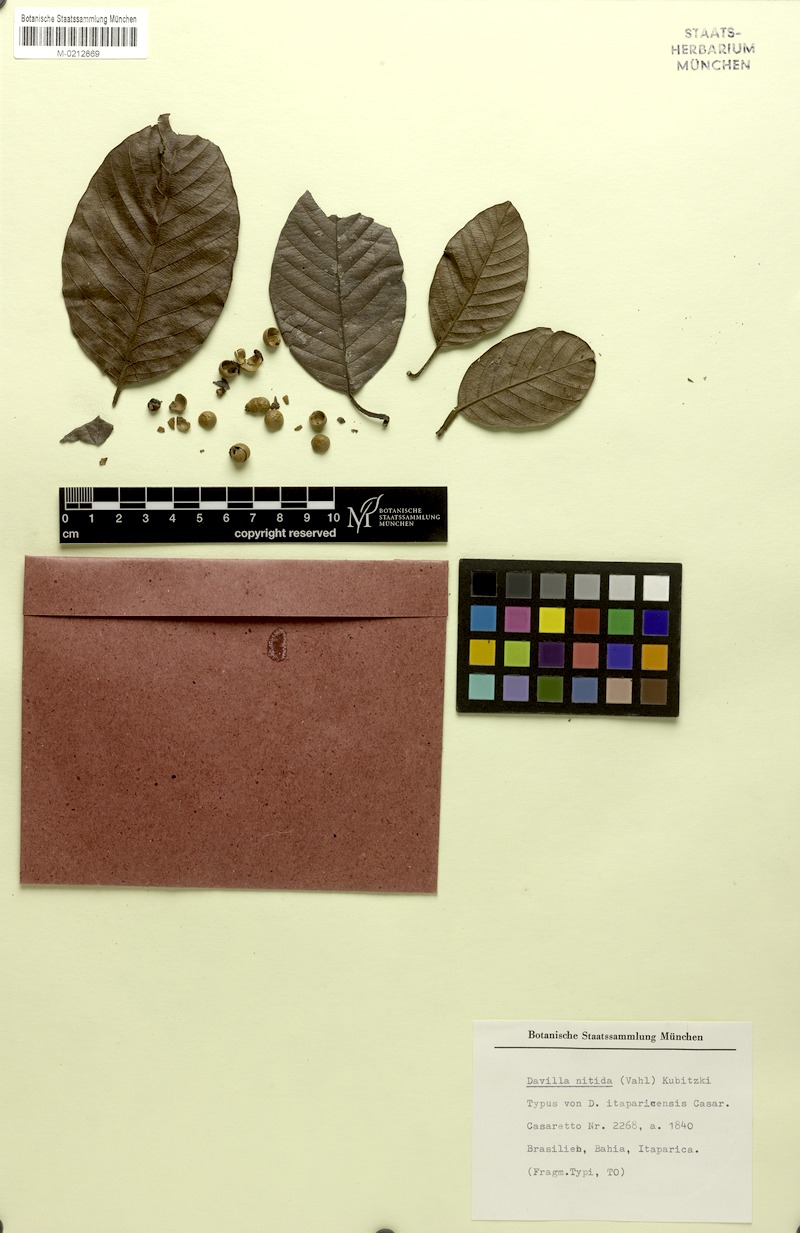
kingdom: Plantae
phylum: Tracheophyta
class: Magnoliopsida
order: Dilleniales
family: Dilleniaceae
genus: Davilla
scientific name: Davilla nitida
